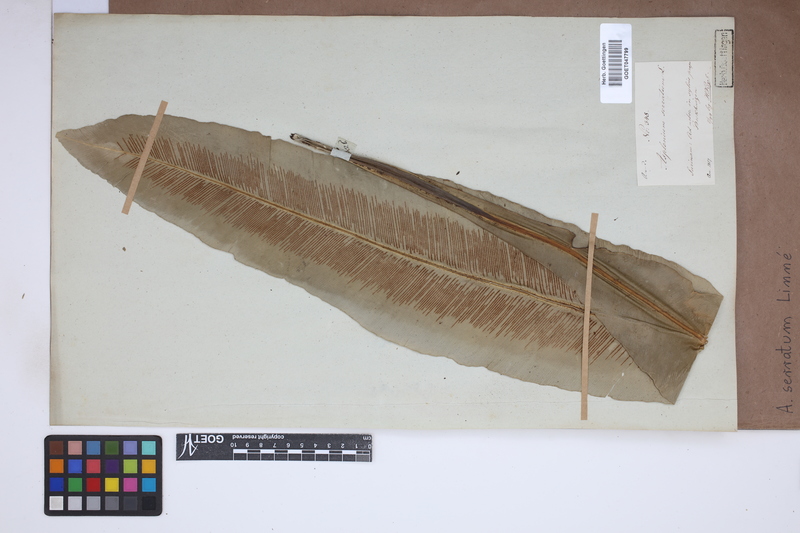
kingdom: Plantae
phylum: Tracheophyta
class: Polypodiopsida
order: Polypodiales
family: Aspleniaceae
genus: Asplenium
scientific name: Asplenium serratum
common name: Wild birdnest fern
